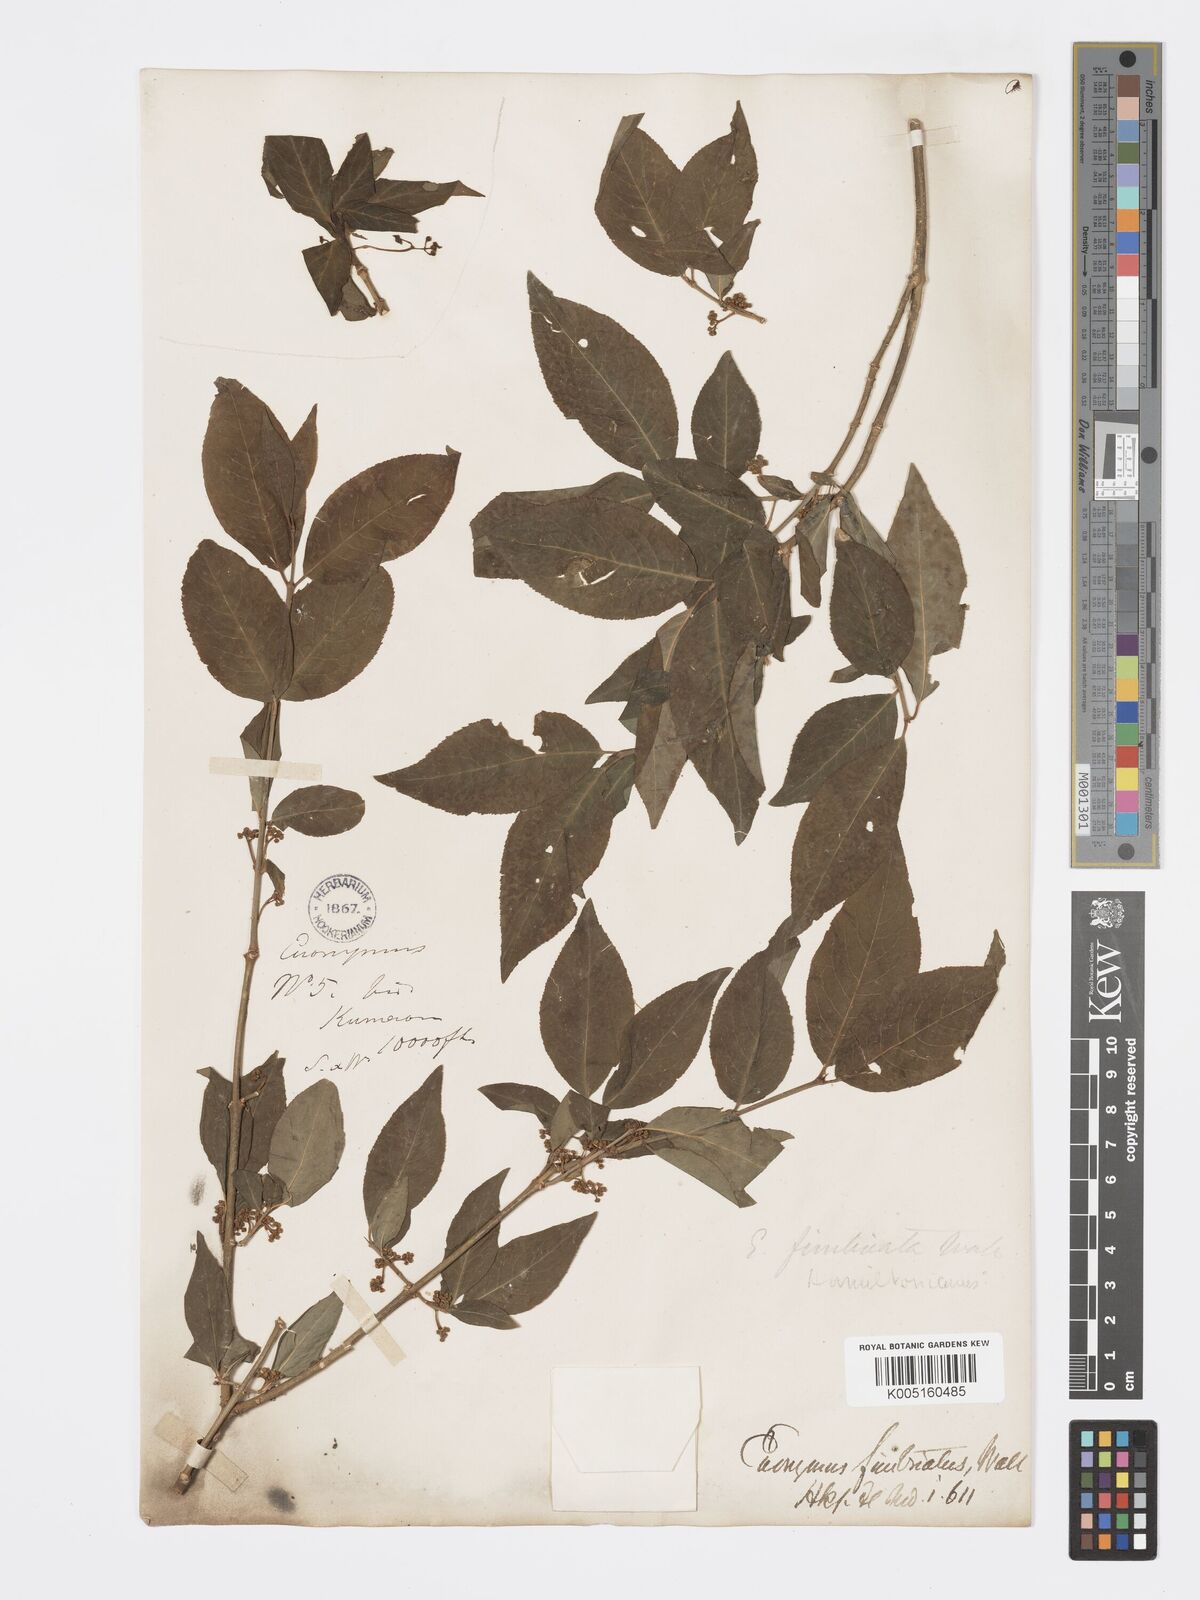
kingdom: Plantae
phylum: Tracheophyta
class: Magnoliopsida
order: Celastrales
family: Celastraceae
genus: Euonymus
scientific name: Euonymus
